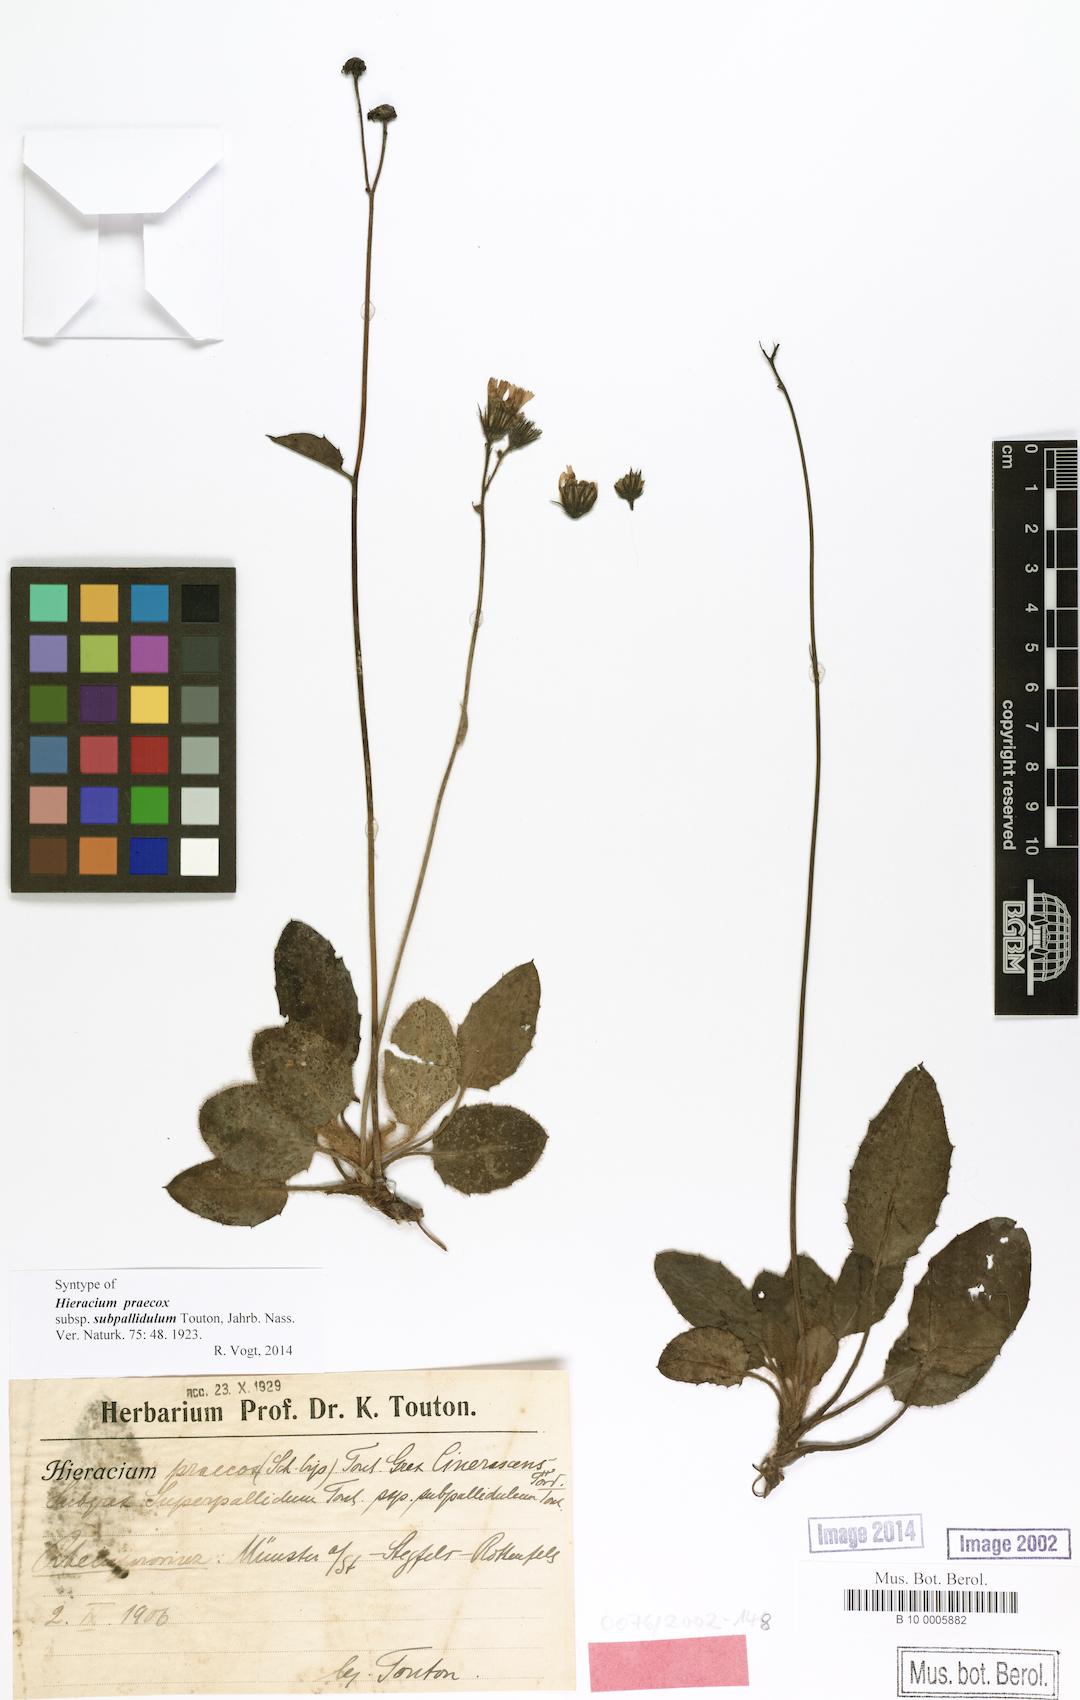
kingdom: Plantae
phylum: Tracheophyta
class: Magnoliopsida
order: Asterales
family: Asteraceae
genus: Hieracium
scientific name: Hieracium glaucinum
